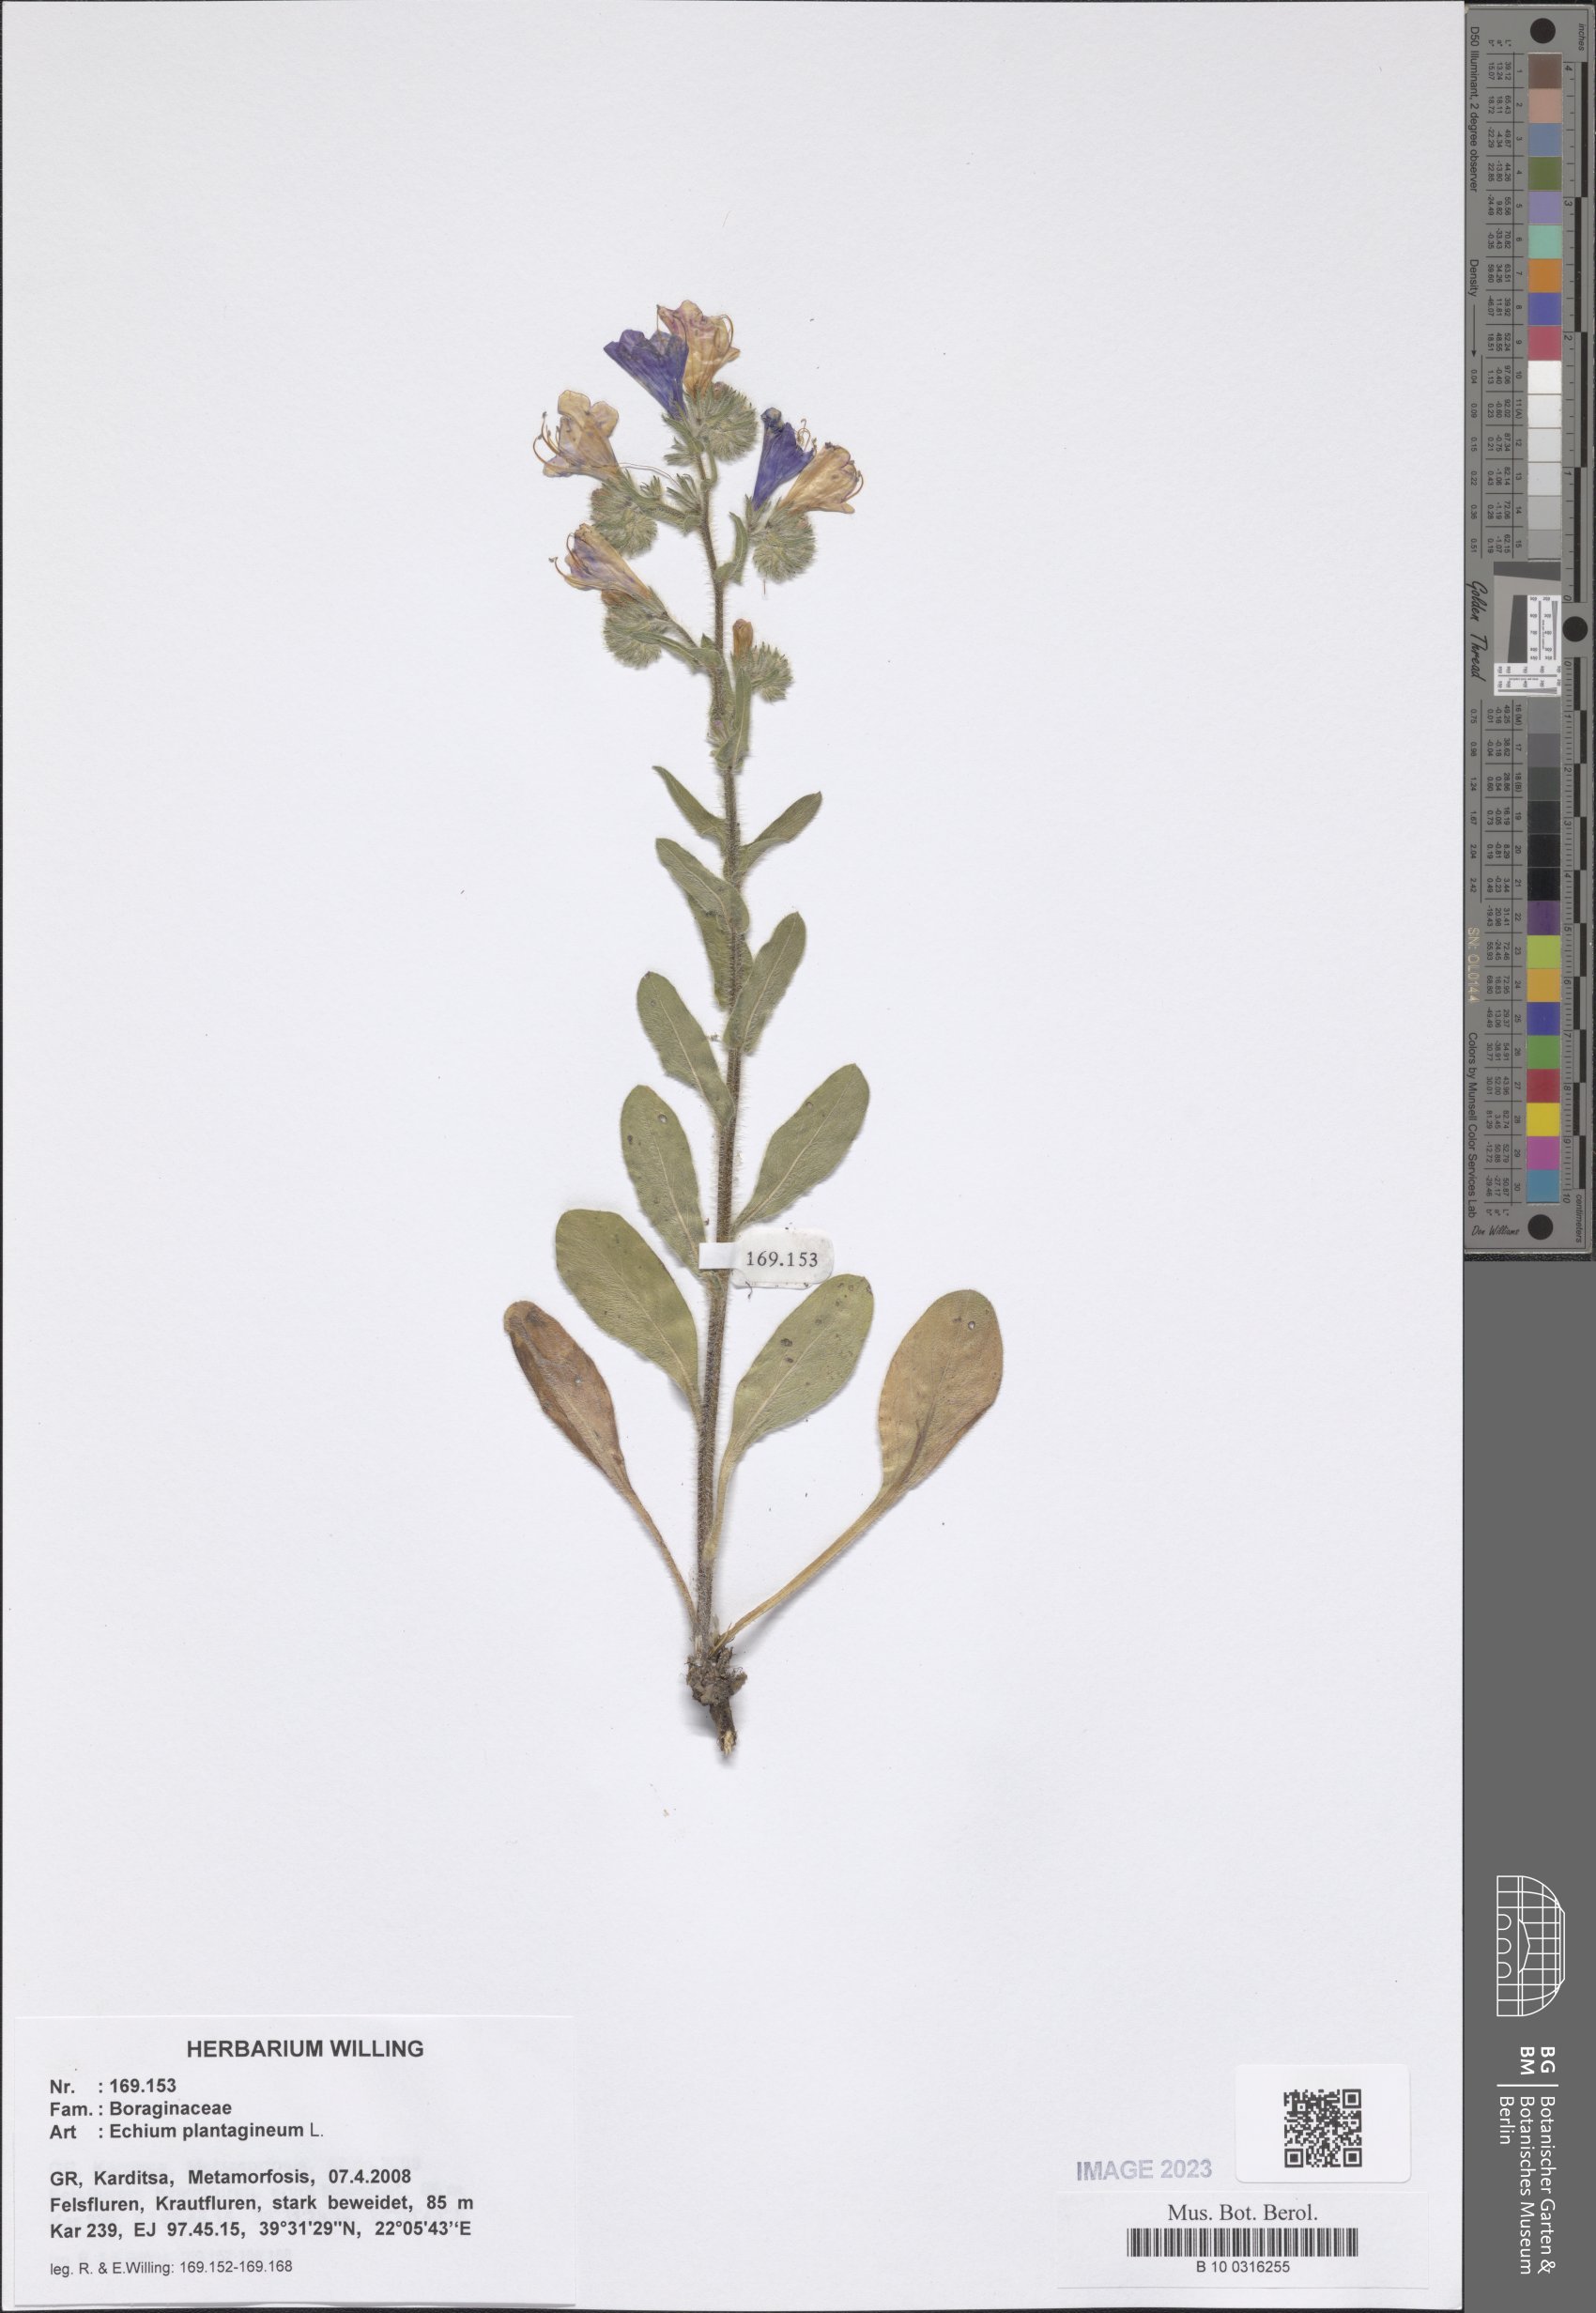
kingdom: Plantae
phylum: Tracheophyta
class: Magnoliopsida
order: Boraginales
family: Boraginaceae
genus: Echium
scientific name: Echium plantagineum
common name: Purple viper's-bugloss
